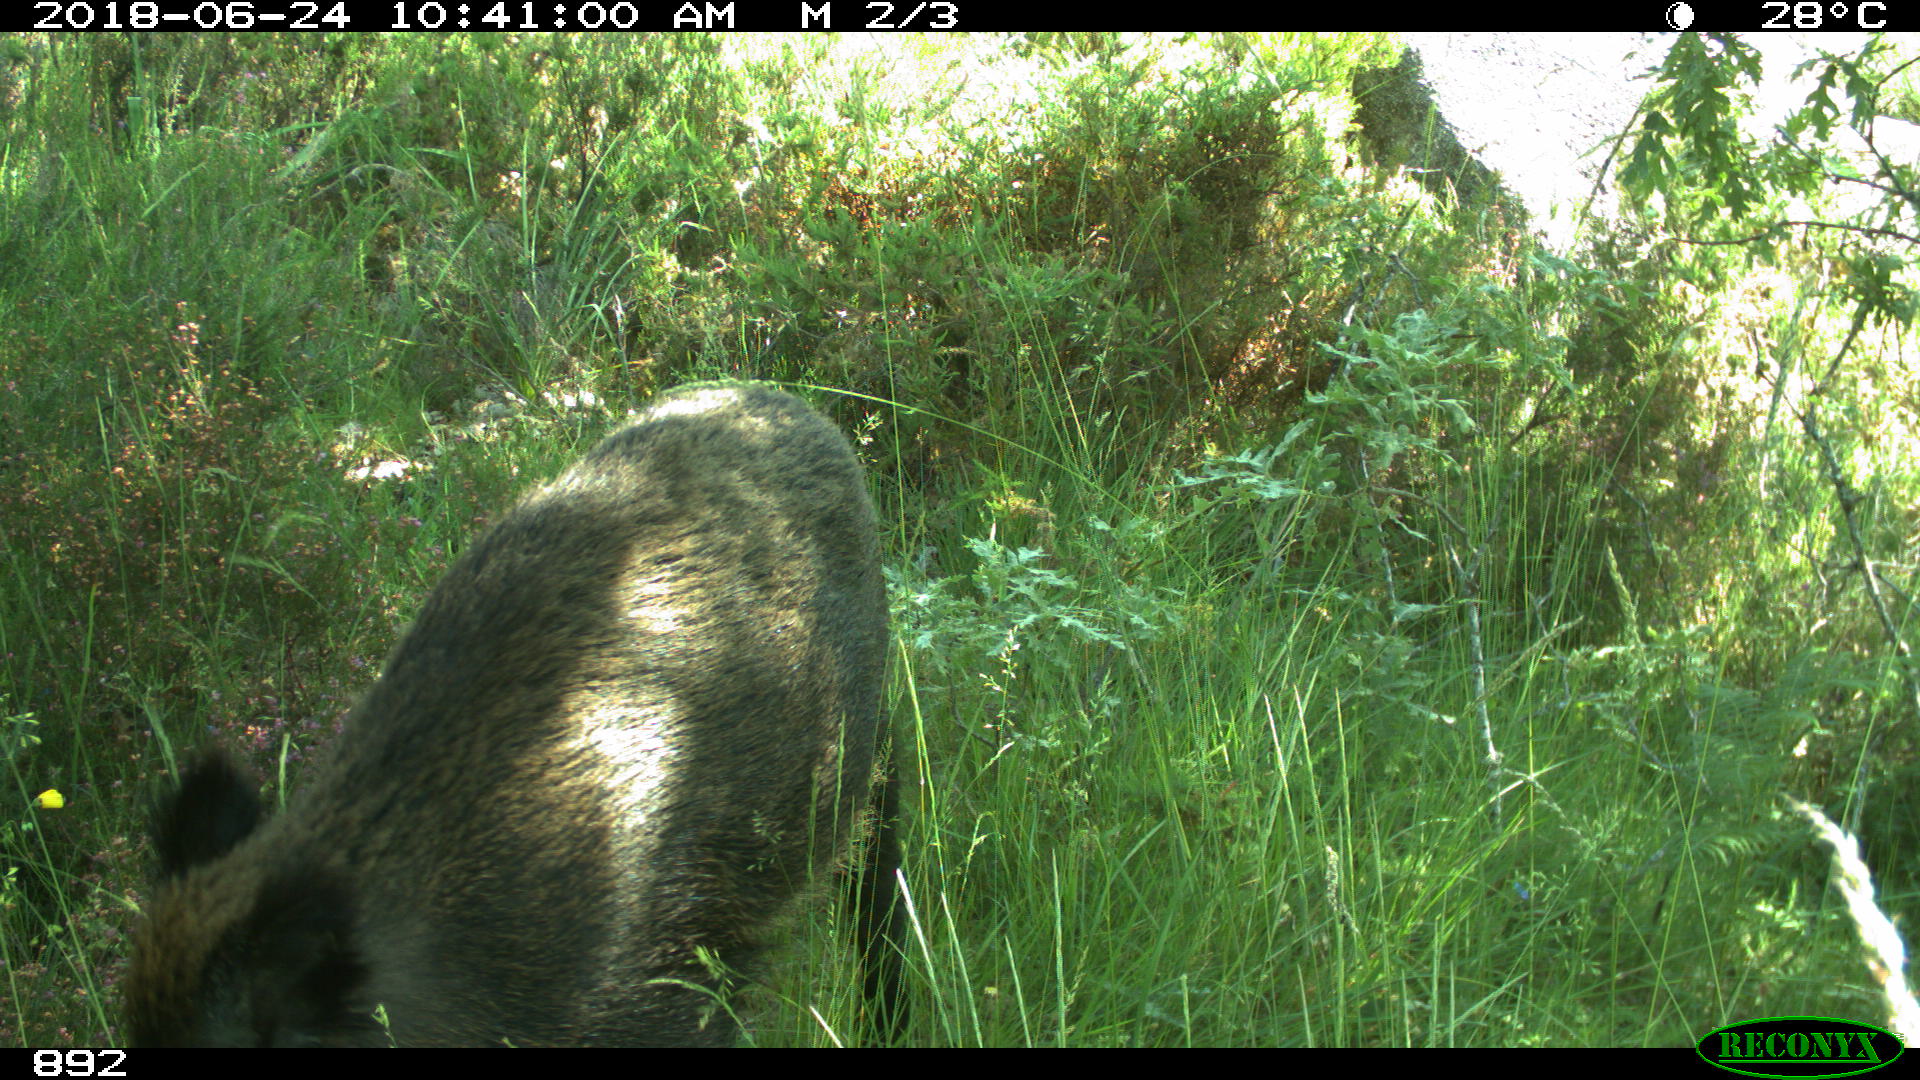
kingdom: Animalia
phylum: Chordata
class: Mammalia
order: Artiodactyla
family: Suidae
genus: Sus
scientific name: Sus scrofa
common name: Wild boar
